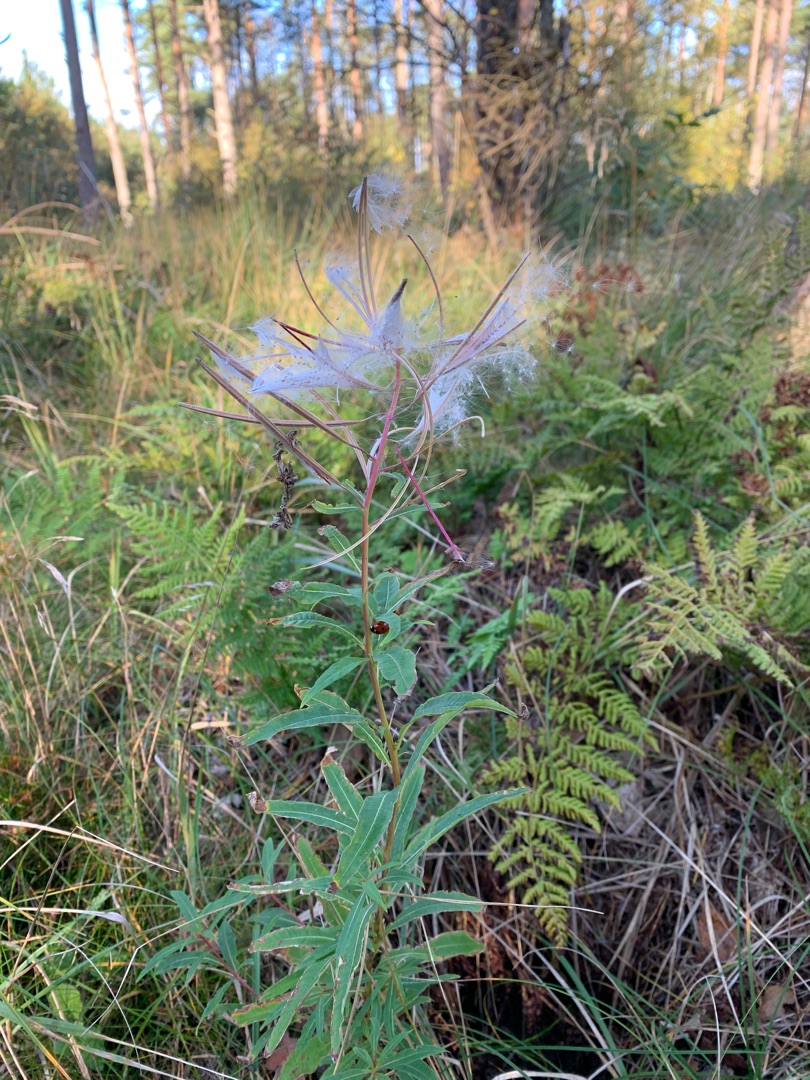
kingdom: Plantae
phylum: Tracheophyta
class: Magnoliopsida
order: Myrtales
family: Onagraceae
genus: Chamaenerion
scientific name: Chamaenerion angustifolium
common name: Gederams
